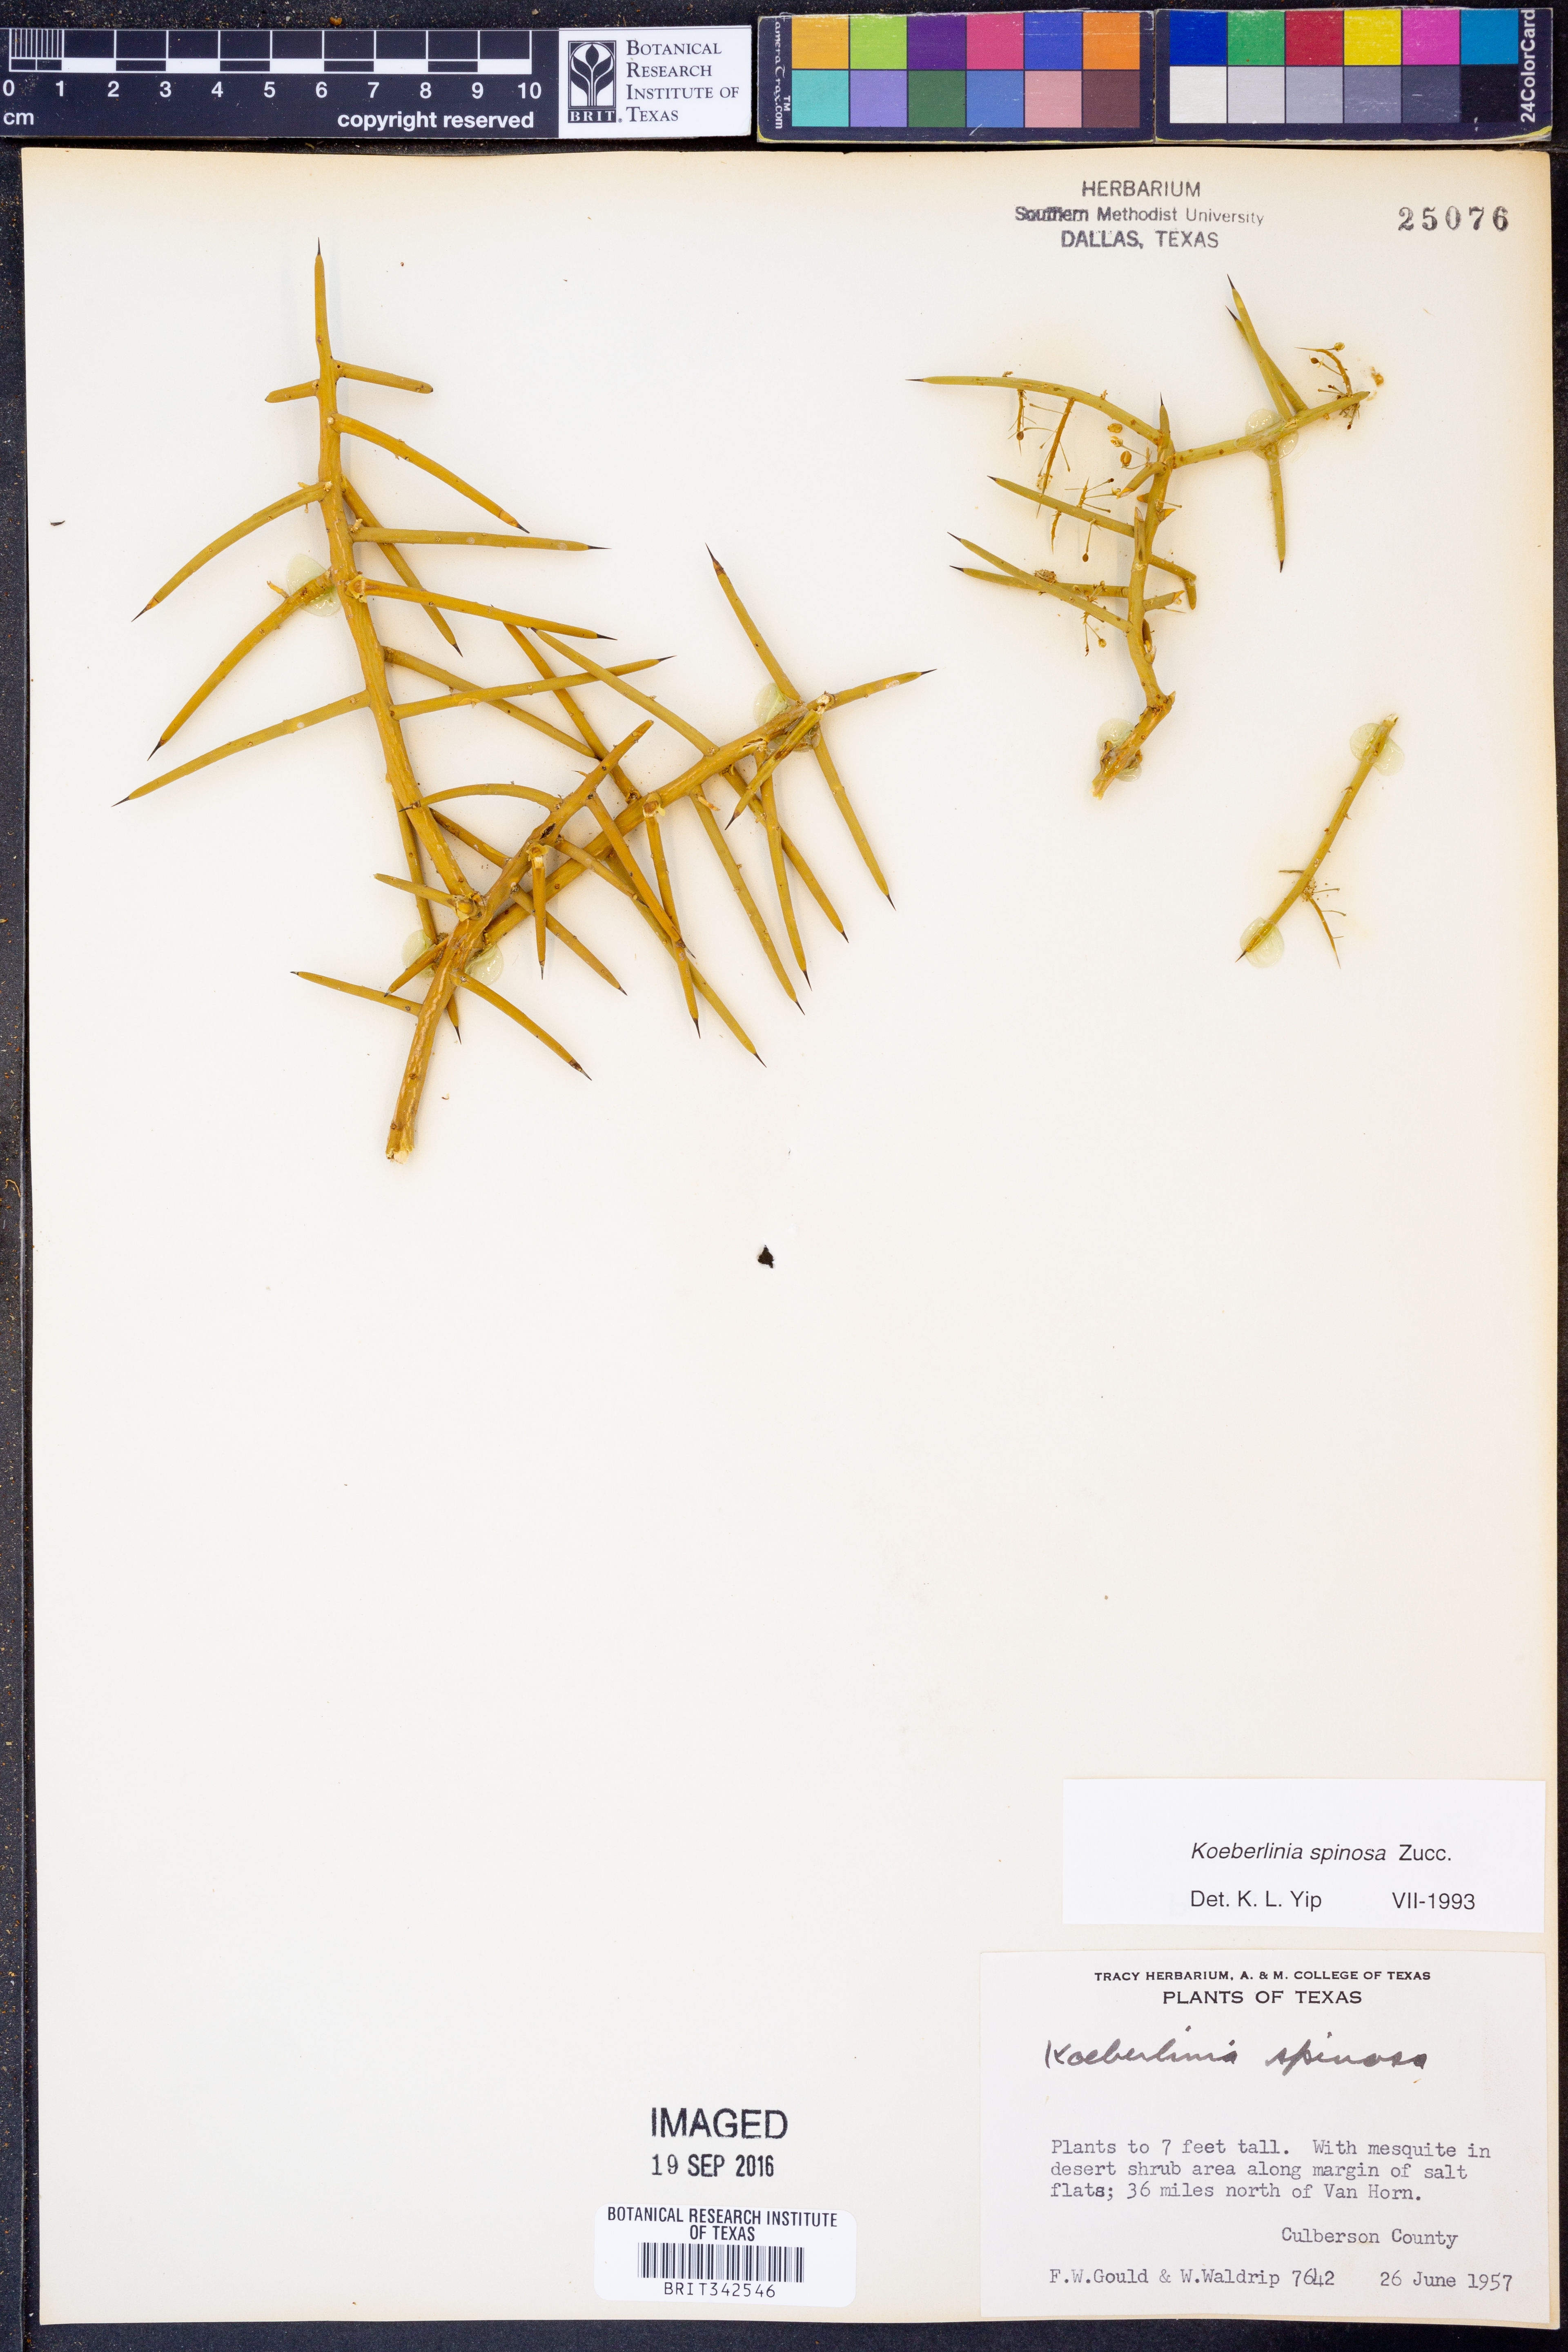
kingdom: Plantae
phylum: Tracheophyta
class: Magnoliopsida
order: Brassicales
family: Koeberliniaceae
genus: Koeberlinia
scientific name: Koeberlinia spinosa
